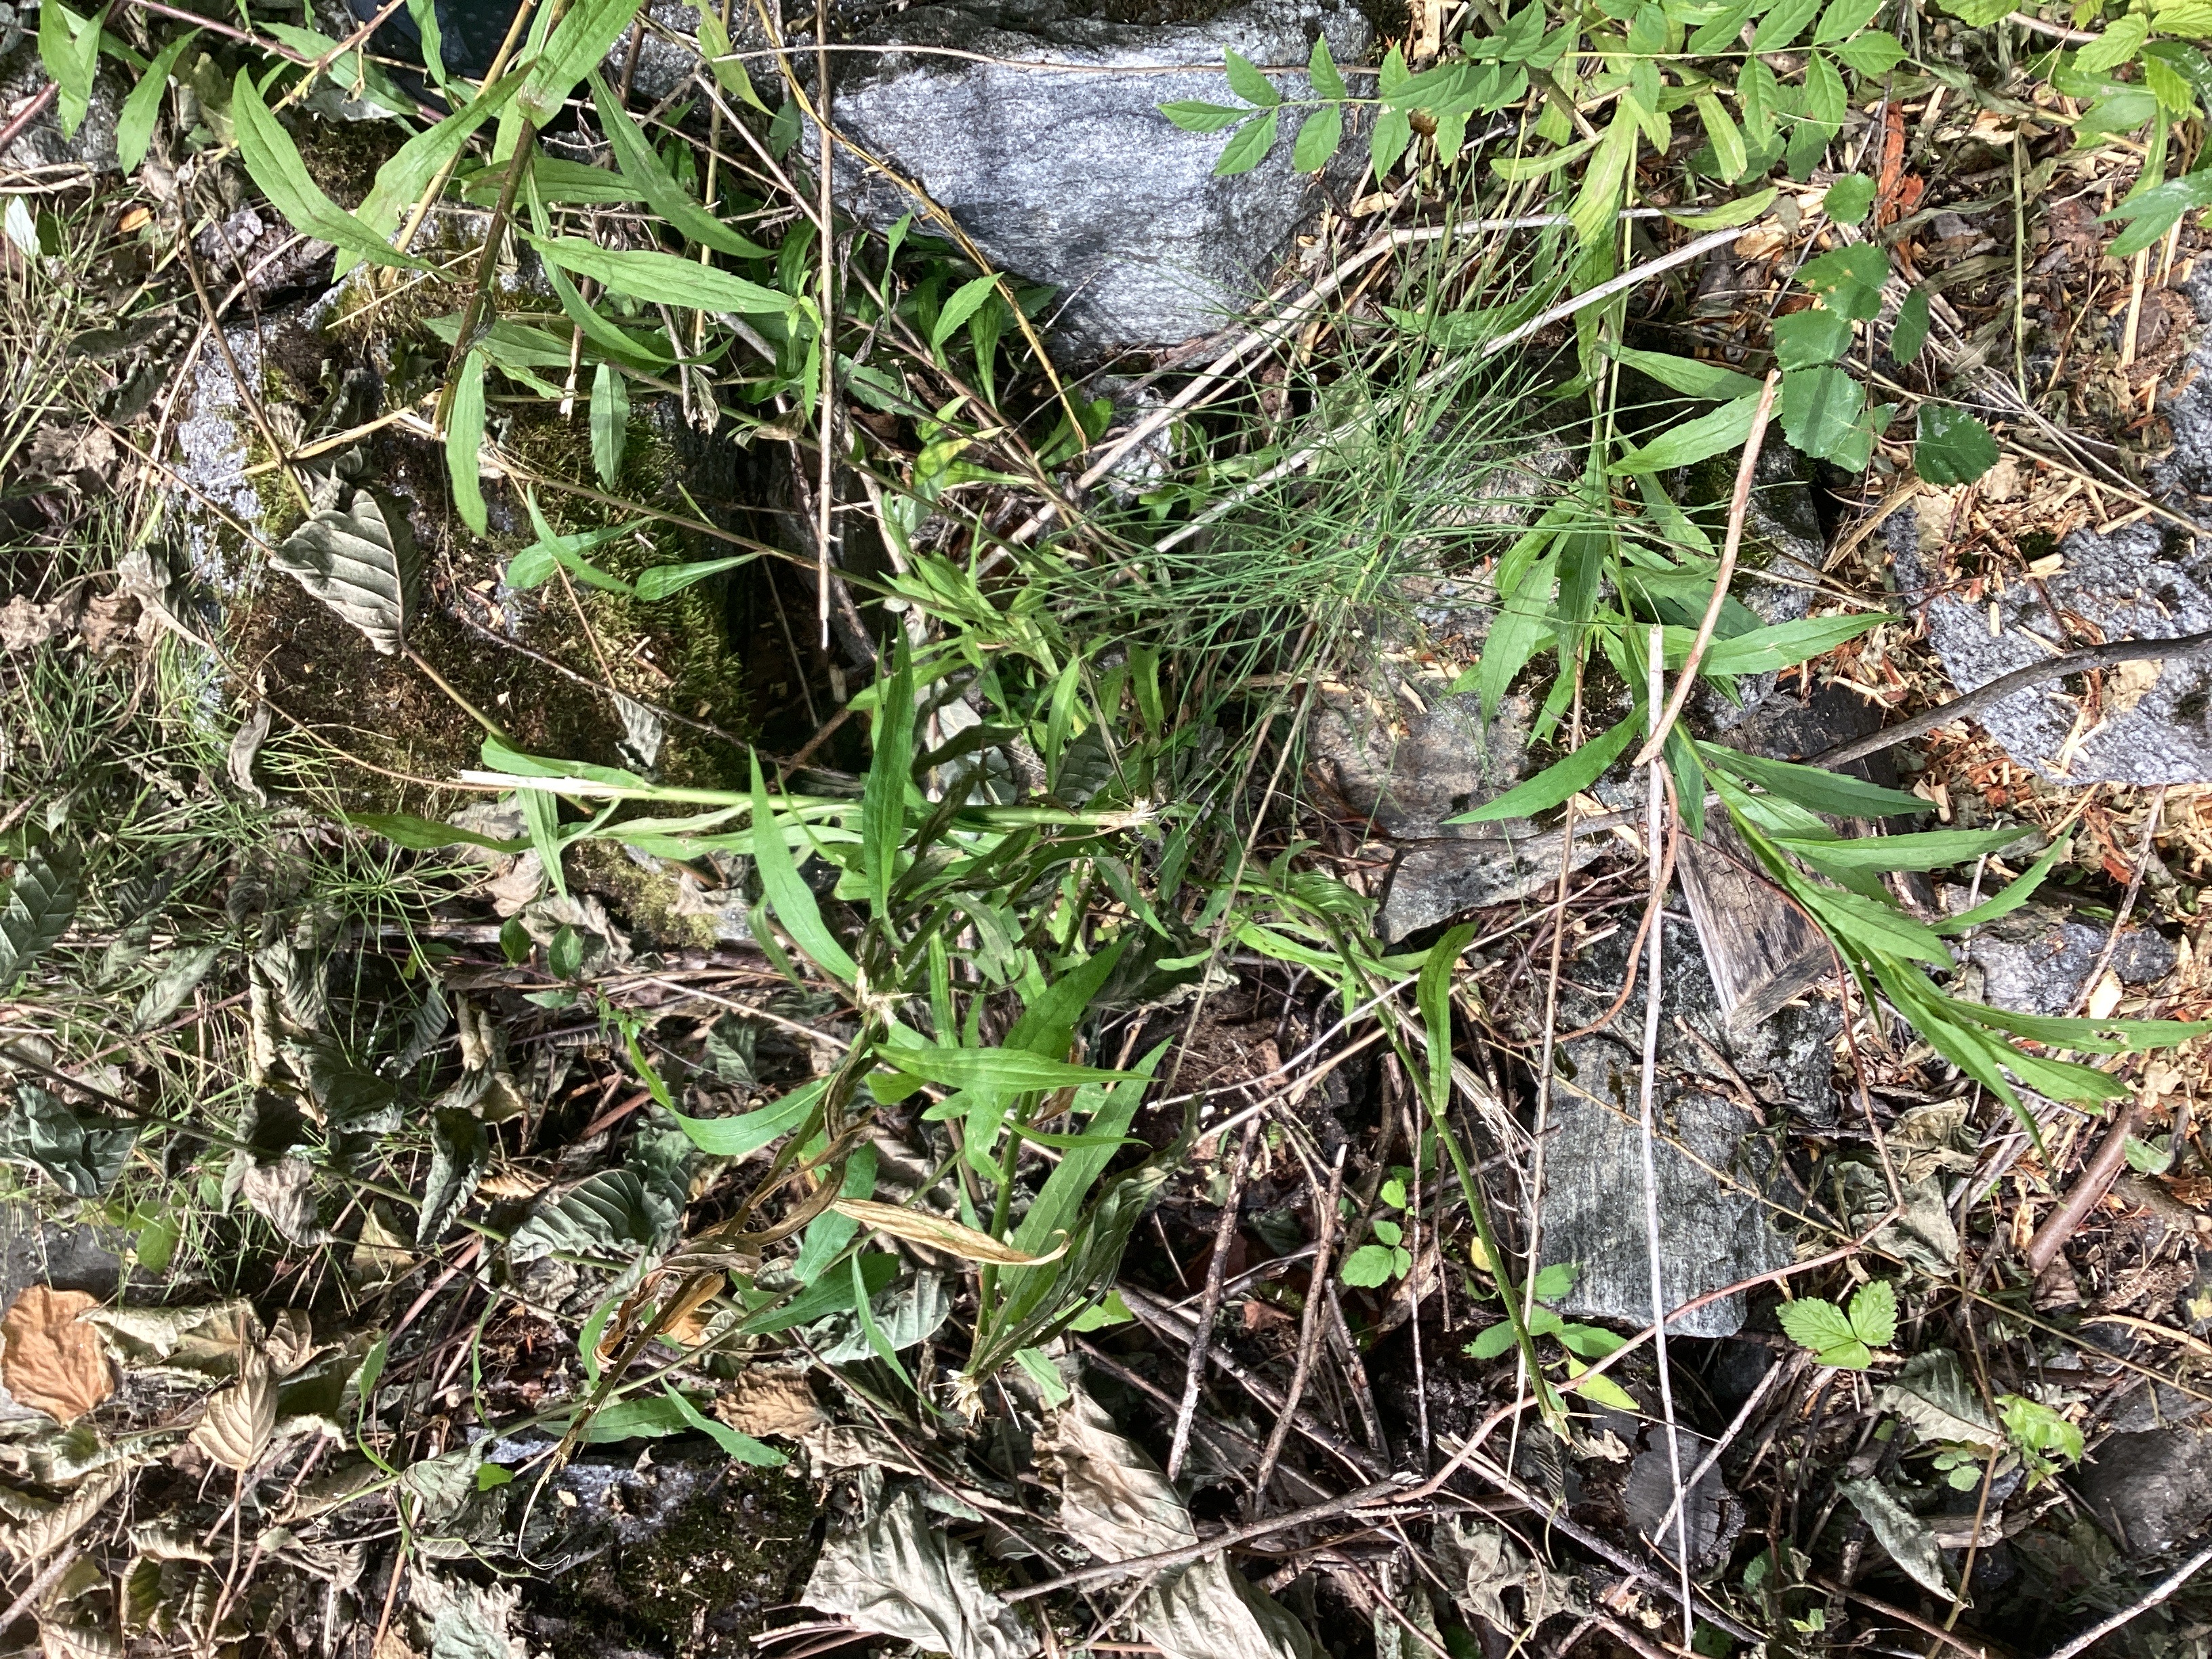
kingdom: Plantae
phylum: Tracheophyta
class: Magnoliopsida
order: Asterales
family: Asteraceae
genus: Solidago
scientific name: Solidago canadensis
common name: kanadagullris
